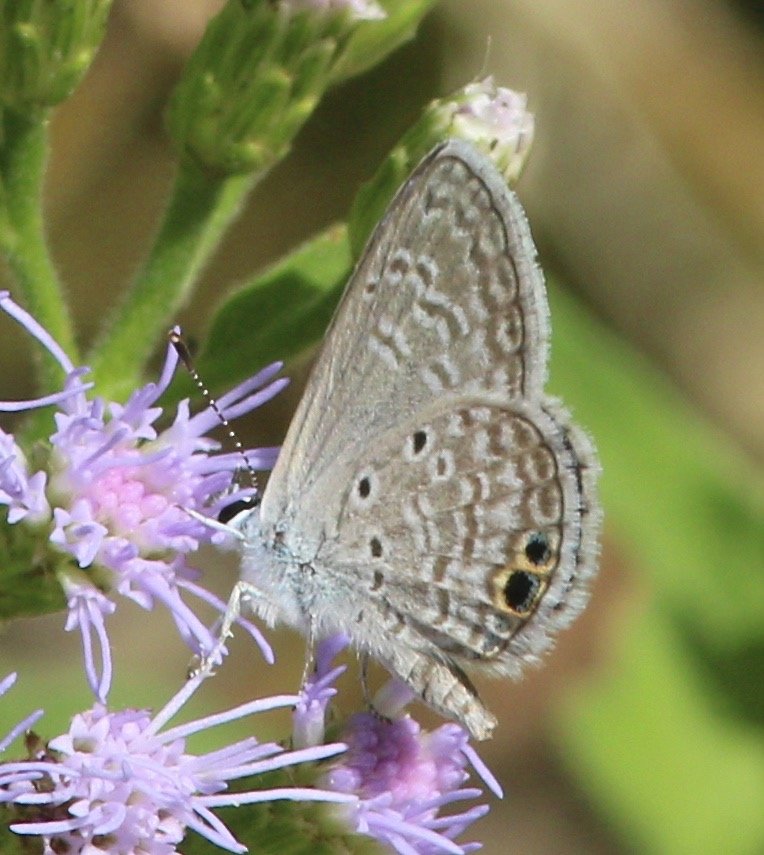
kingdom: Animalia
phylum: Arthropoda
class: Insecta
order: Lepidoptera
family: Lycaenidae
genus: Hemiargus
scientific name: Hemiargus ceraunus
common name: Ceraunus Blue
